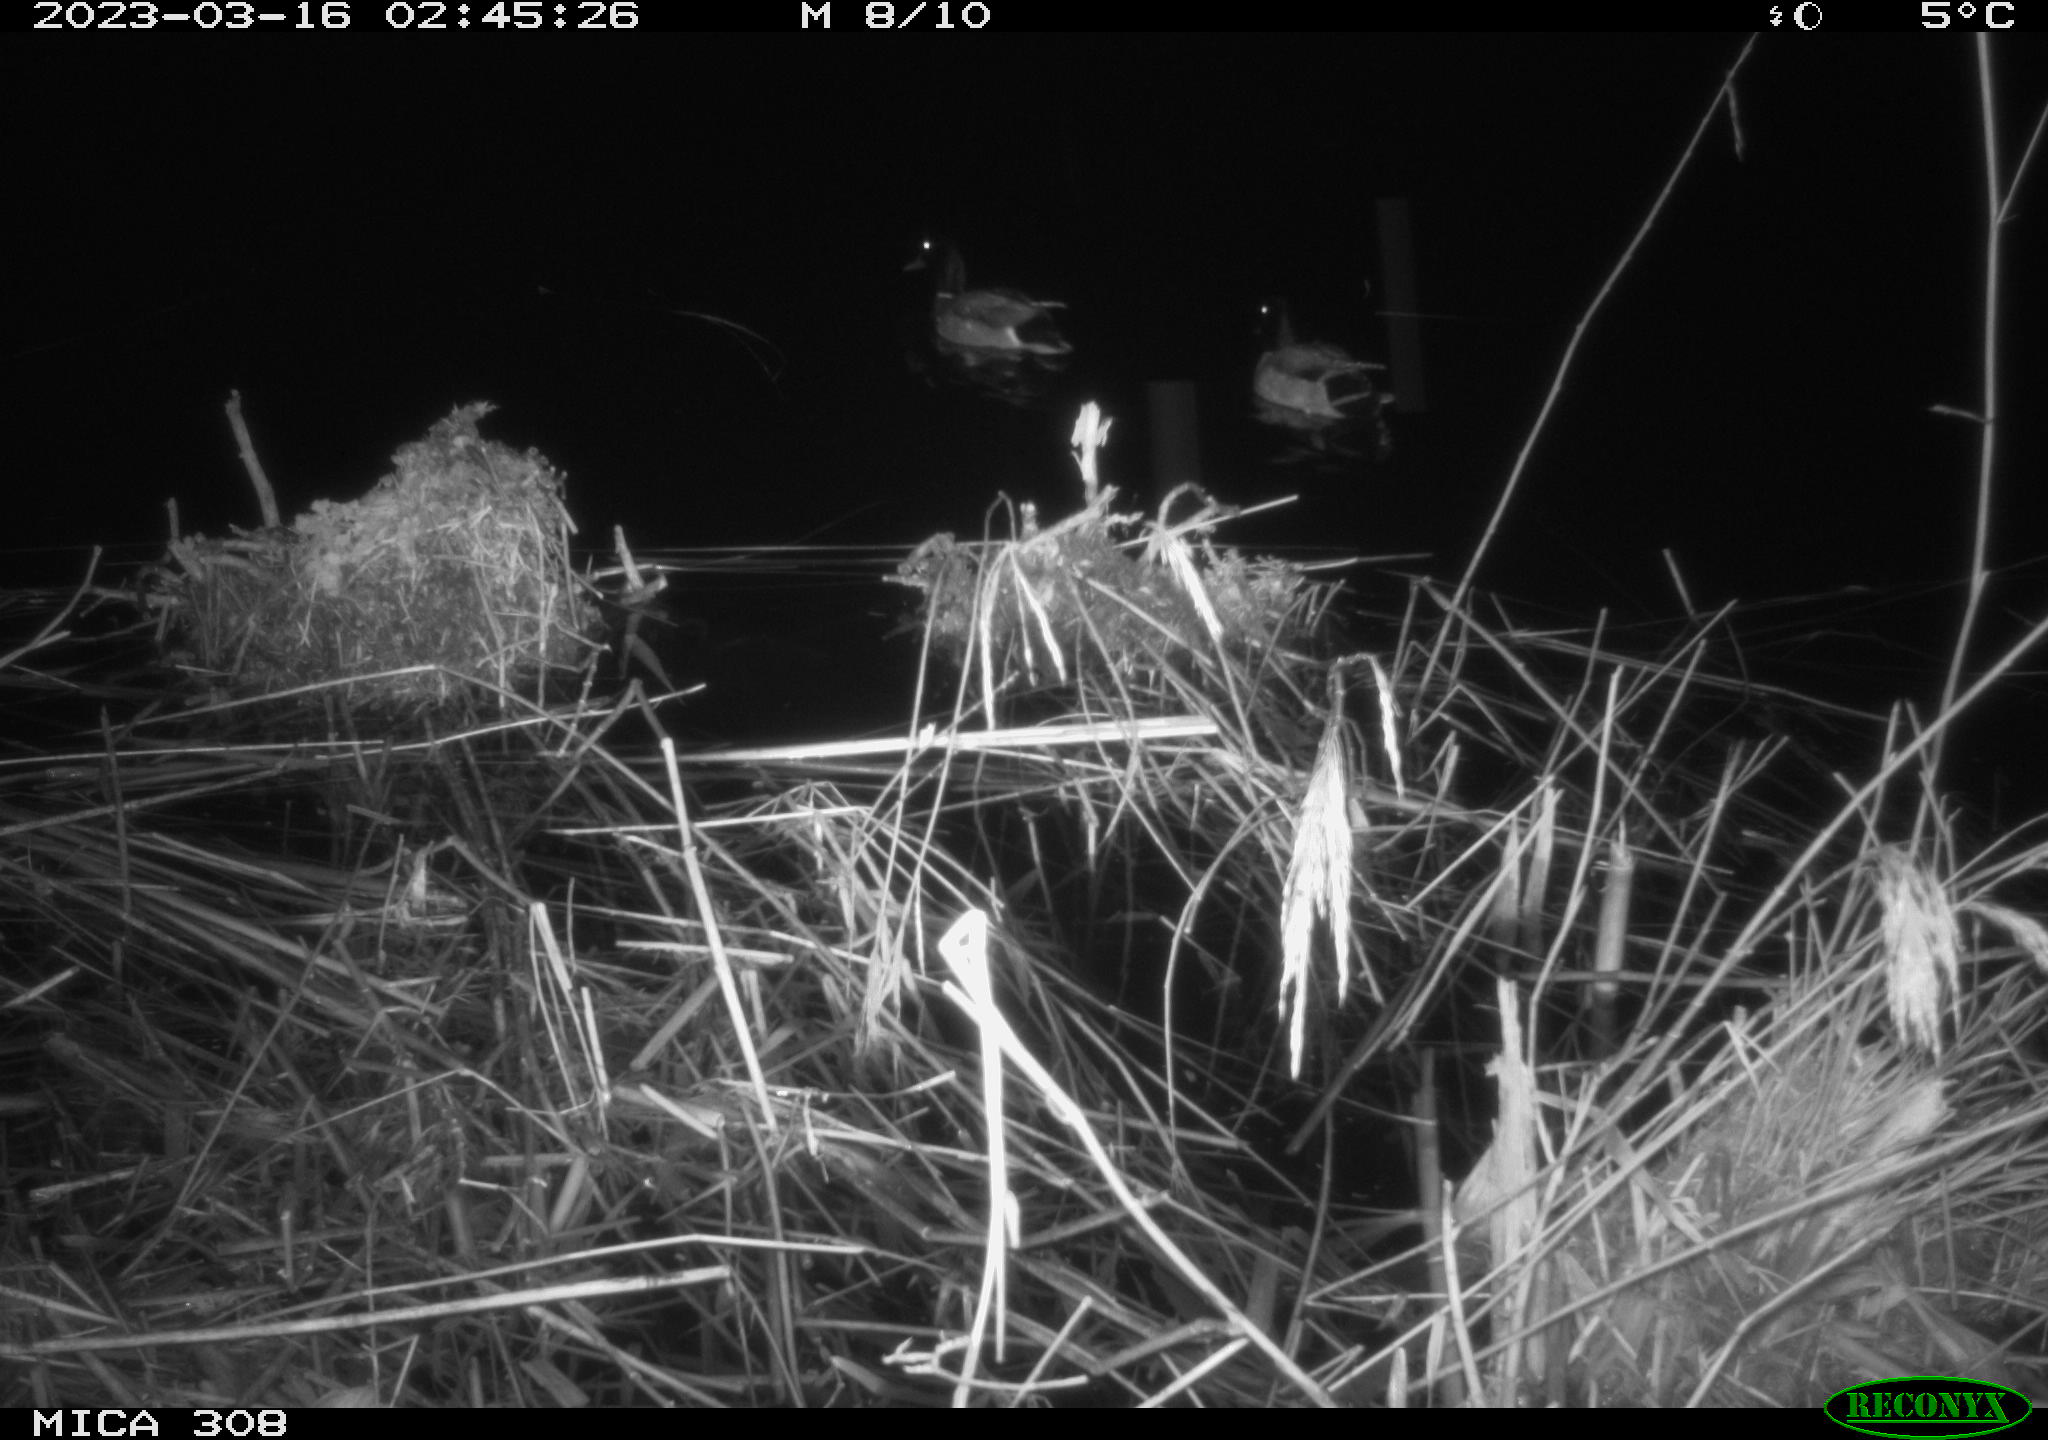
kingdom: Animalia
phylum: Chordata
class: Aves
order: Anseriformes
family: Anatidae
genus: Anas
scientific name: Anas
